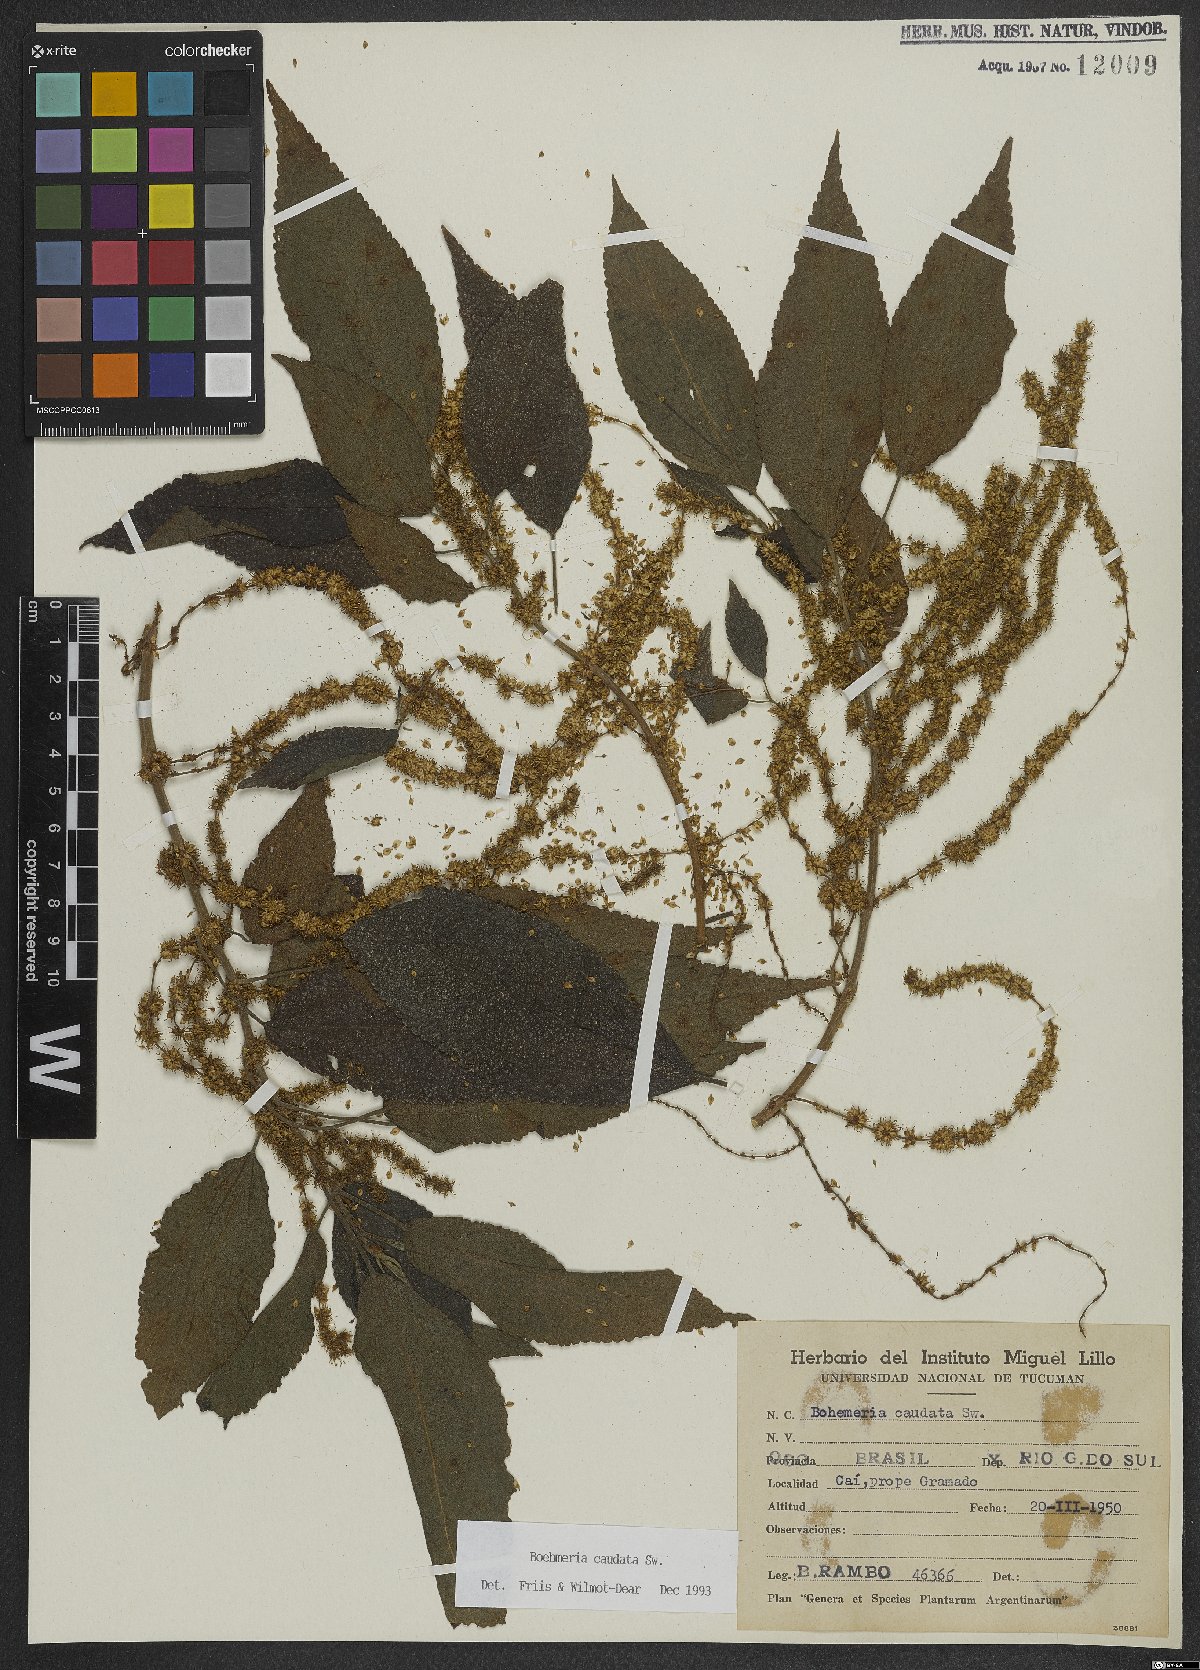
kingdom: Plantae
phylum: Tracheophyta
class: Magnoliopsida
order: Rosales
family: Urticaceae
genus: Boehmeria
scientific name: Boehmeria caudata
